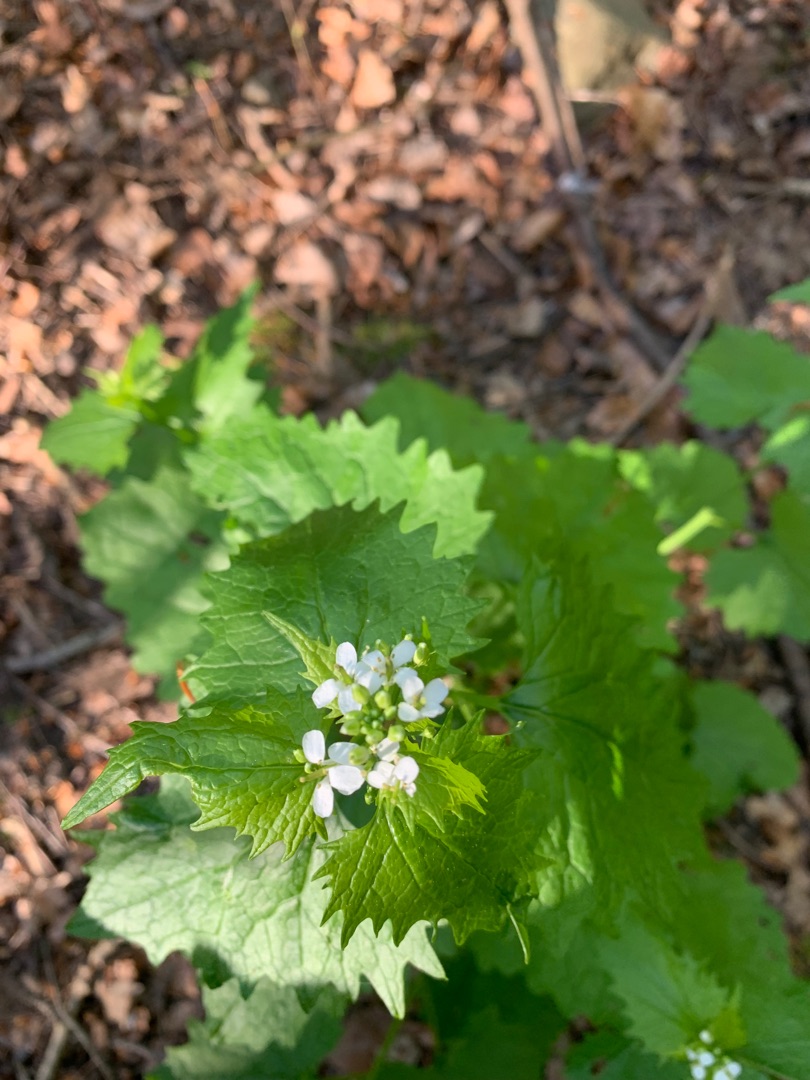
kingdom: Plantae
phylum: Tracheophyta
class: Magnoliopsida
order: Brassicales
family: Brassicaceae
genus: Alliaria
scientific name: Alliaria petiolata
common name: Løgkarse
